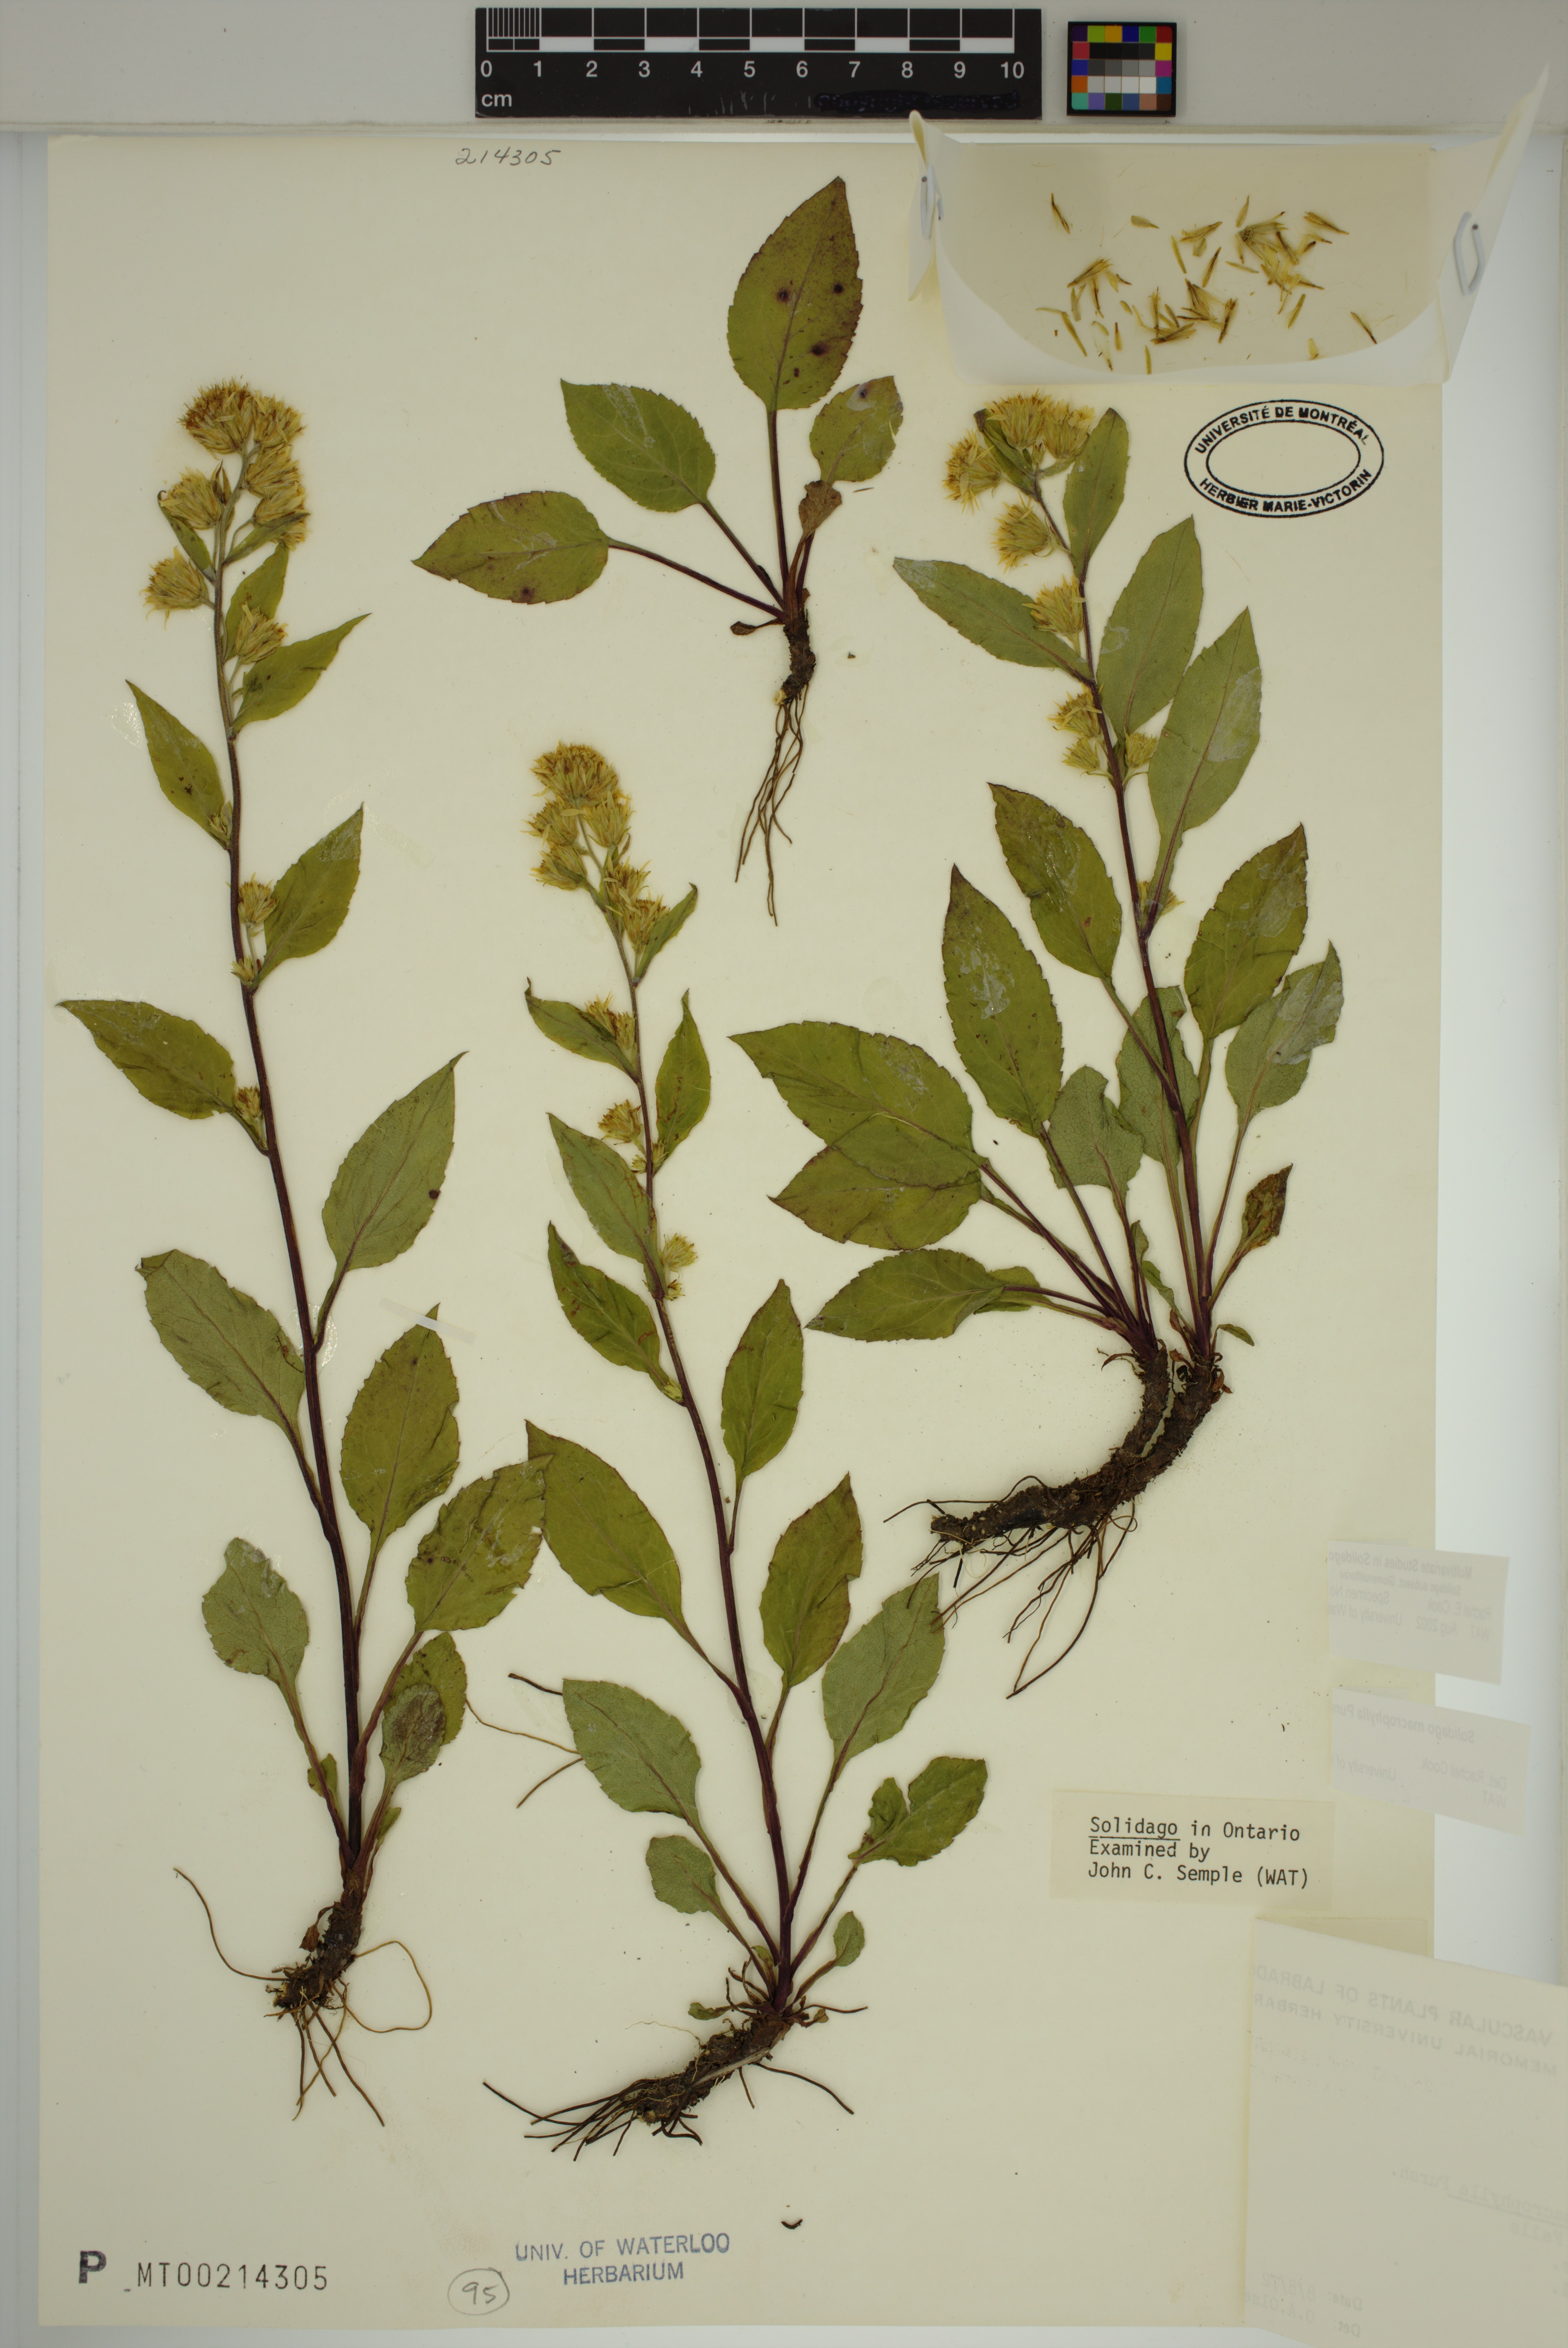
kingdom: Plantae
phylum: Tracheophyta
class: Magnoliopsida
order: Asterales
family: Asteraceae
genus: Solidago
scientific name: Solidago macrophylla
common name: Large-leaved goldenrod
